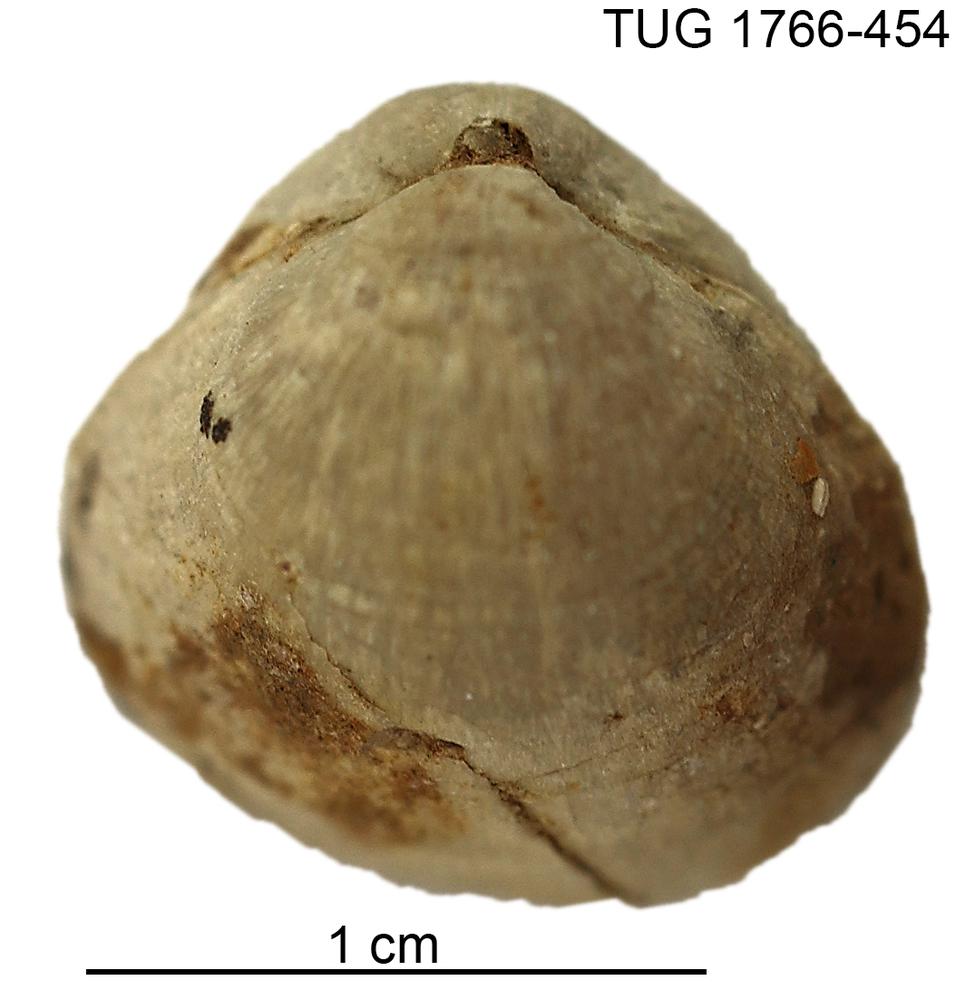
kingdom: Animalia
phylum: Brachiopoda
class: Rhynchonellata
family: Porambonitidae
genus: Porambonites
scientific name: Porambonites
